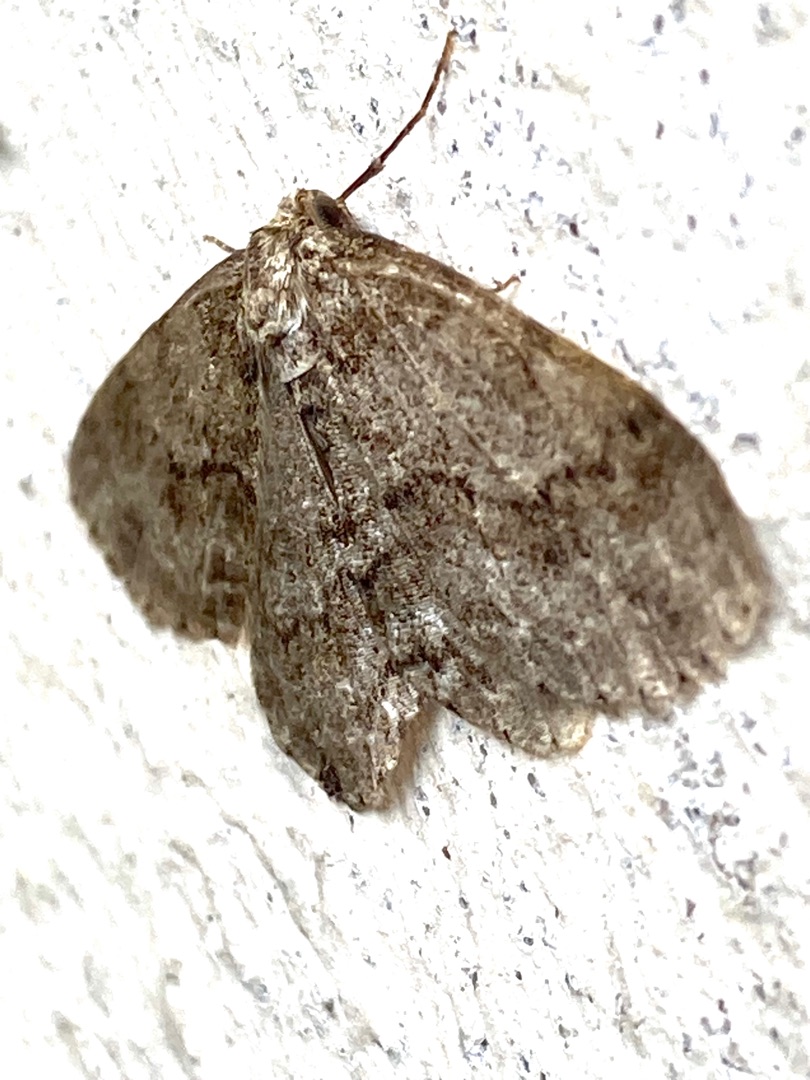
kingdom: Animalia
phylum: Arthropoda
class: Insecta
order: Lepidoptera
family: Geometridae
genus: Ectropis
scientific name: Ectropis crepuscularia
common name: Birke-barkmåler
